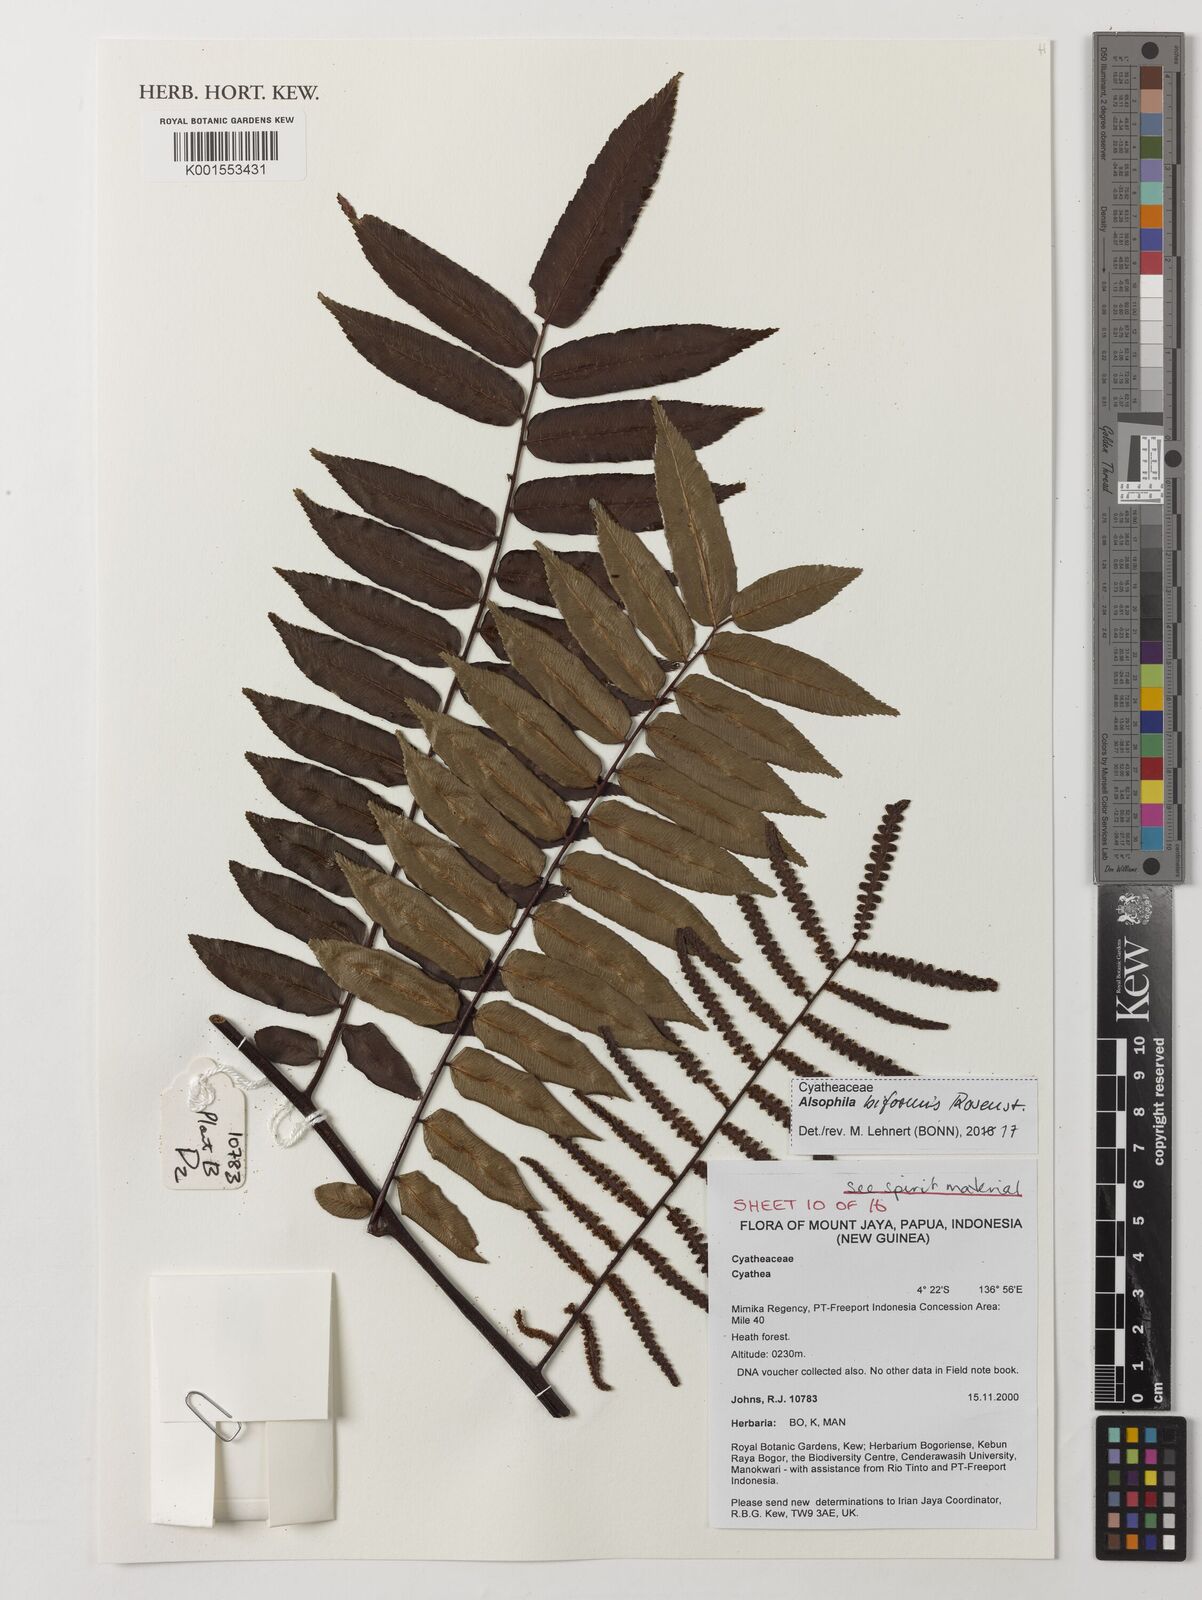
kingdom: Plantae
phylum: Tracheophyta
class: Polypodiopsida
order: Cyatheales
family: Cyatheaceae
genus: Gymnosphaera
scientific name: Gymnosphaera biformis
